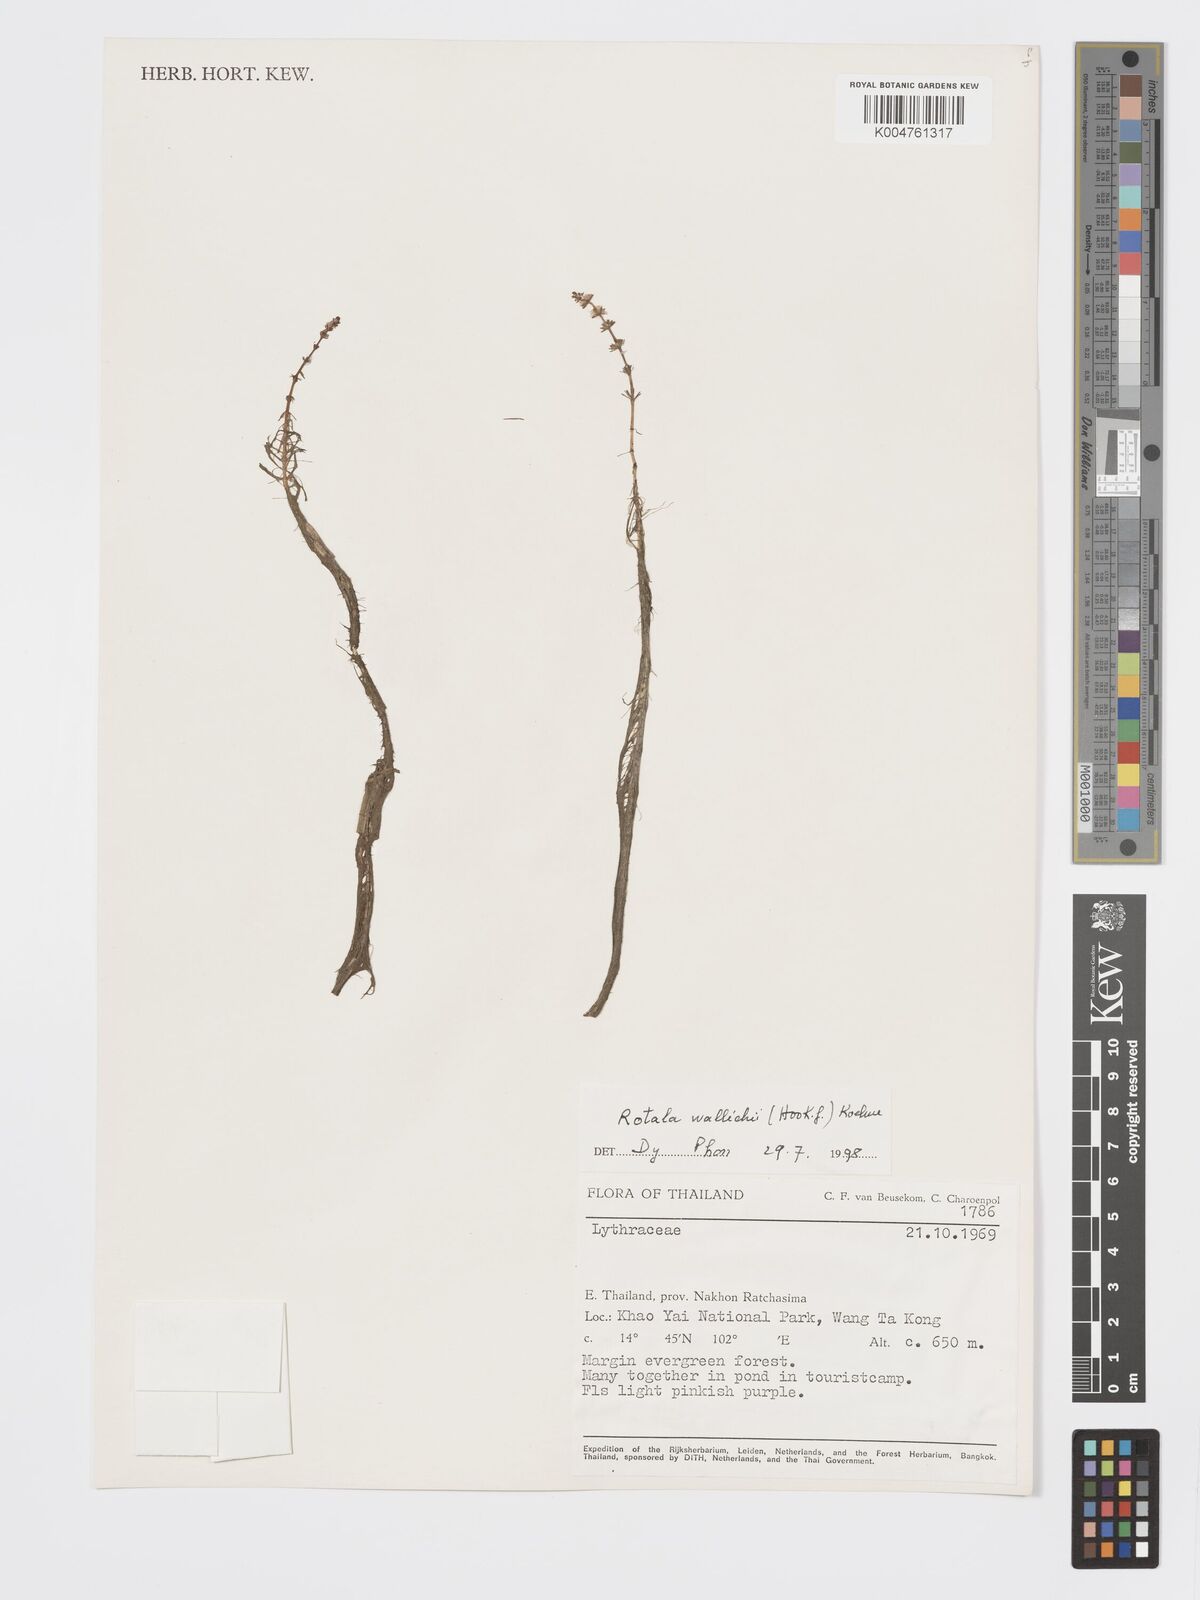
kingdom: Plantae
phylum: Tracheophyta
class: Magnoliopsida
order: Myrtales
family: Lythraceae
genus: Rotala
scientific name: Rotala wallichii
